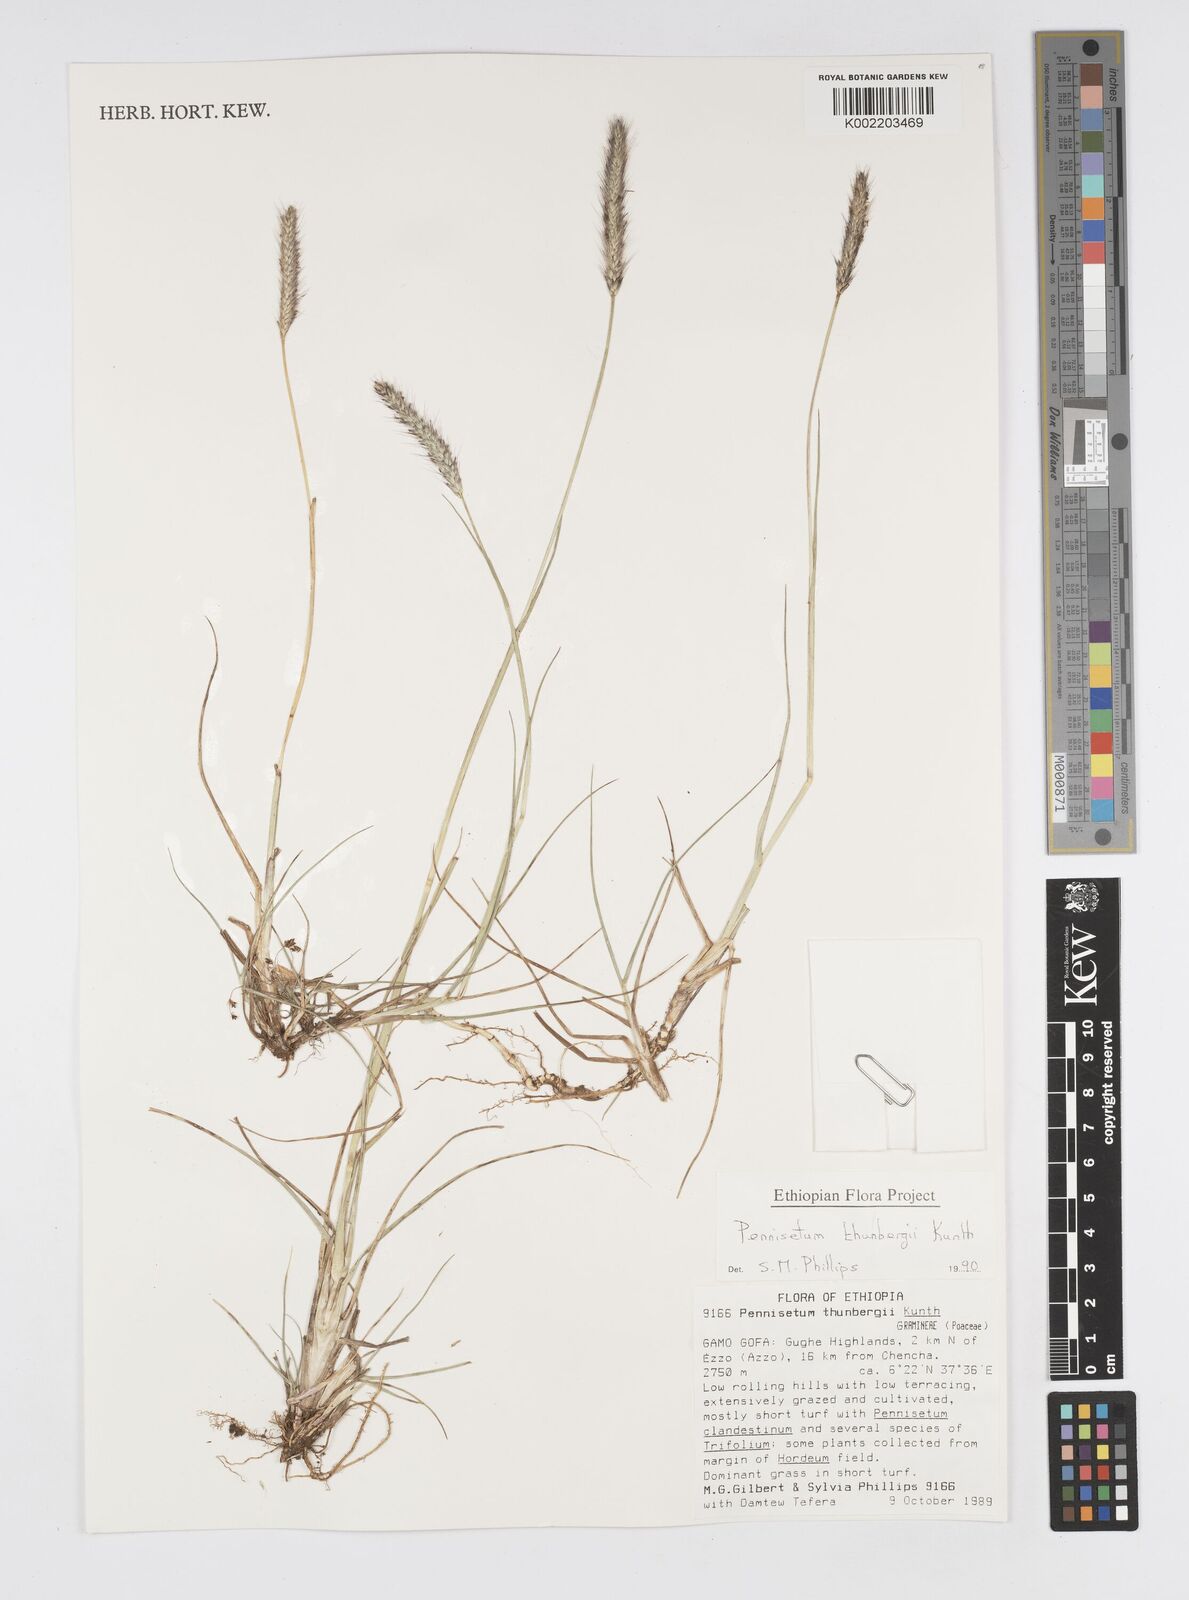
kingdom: Plantae
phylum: Tracheophyta
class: Liliopsida
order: Poales
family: Poaceae
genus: Cenchrus
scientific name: Cenchrus geniculatus
